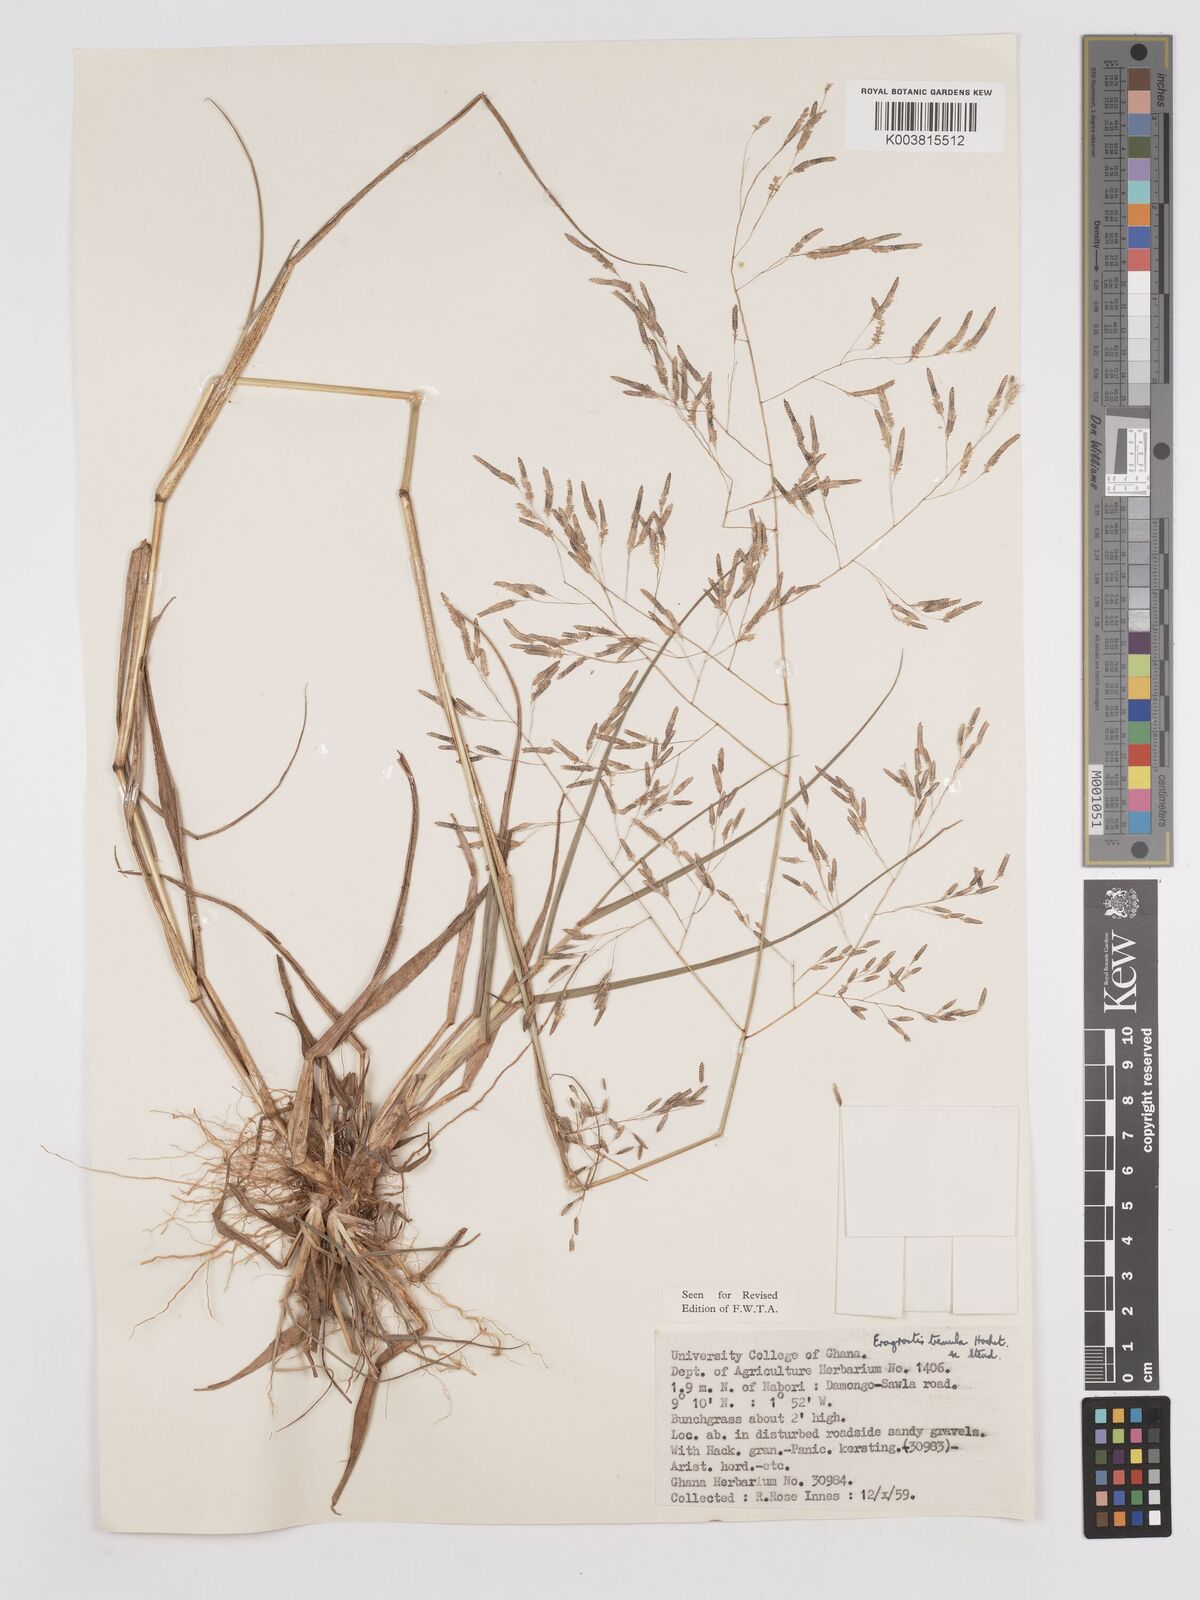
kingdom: Plantae
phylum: Tracheophyta
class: Liliopsida
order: Poales
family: Poaceae
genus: Eragrostis
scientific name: Eragrostis tremula
